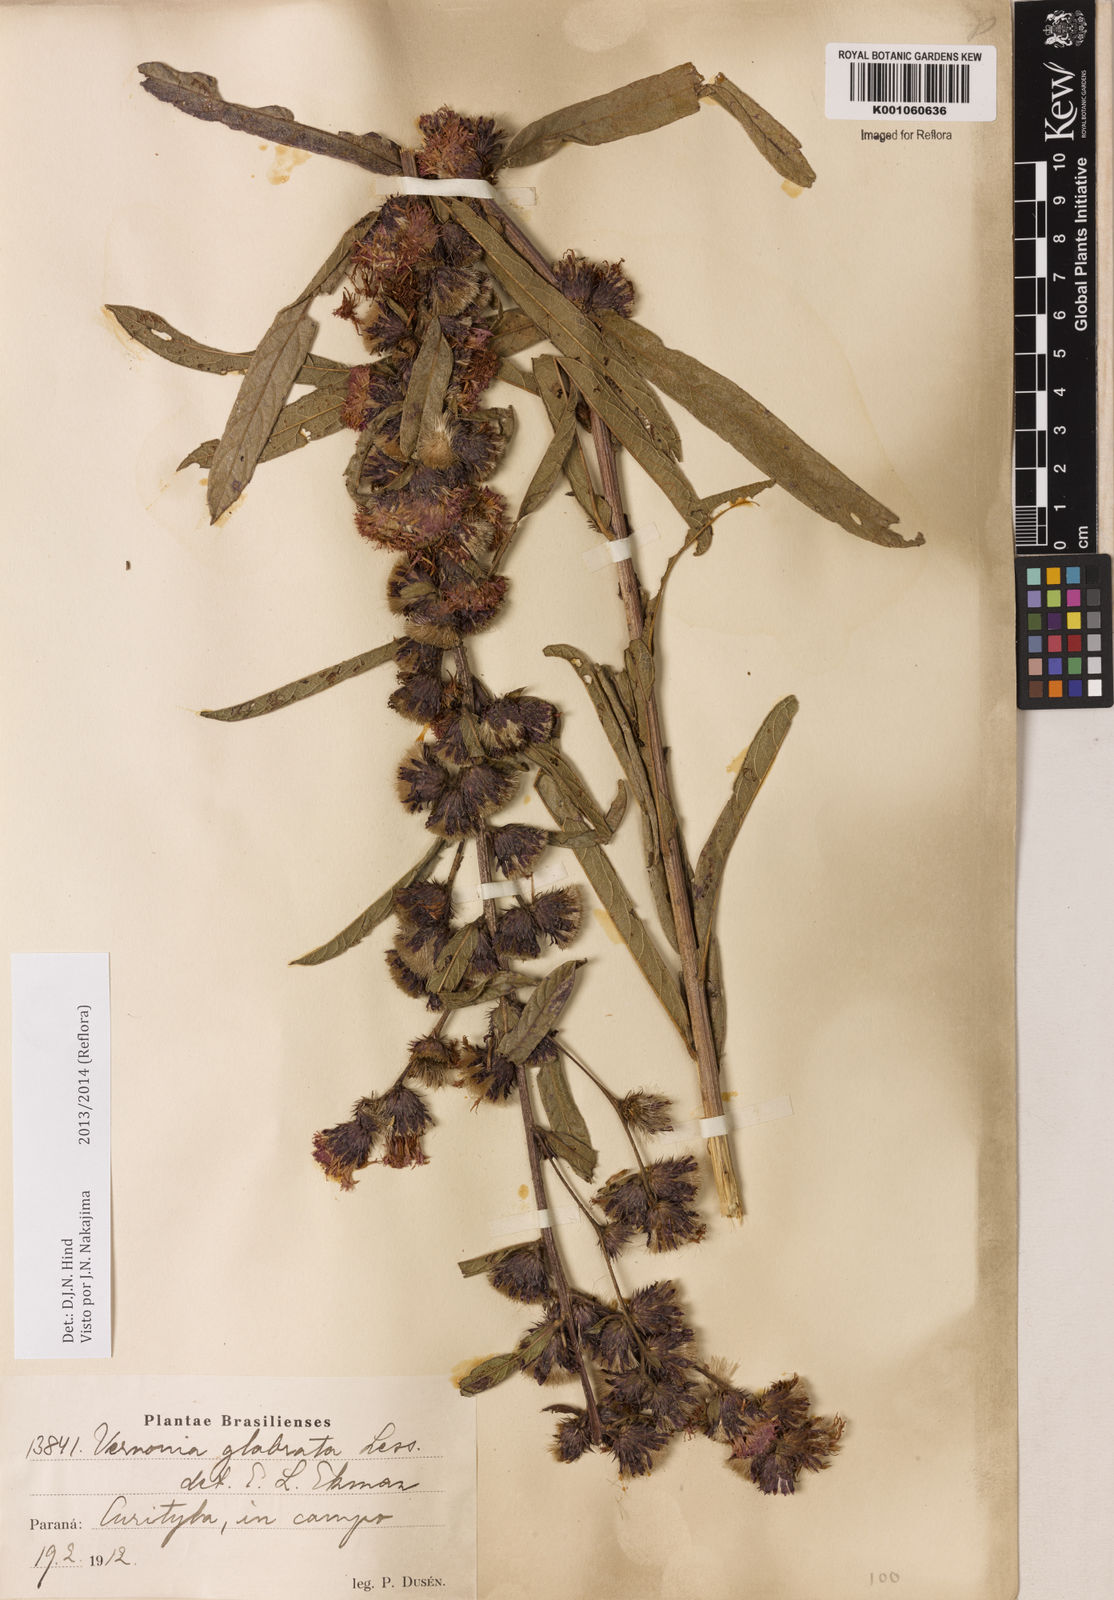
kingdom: Plantae
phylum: Tracheophyta
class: Magnoliopsida
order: Asterales
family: Asteraceae
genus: Lessingianthus
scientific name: Lessingianthus glabratus
